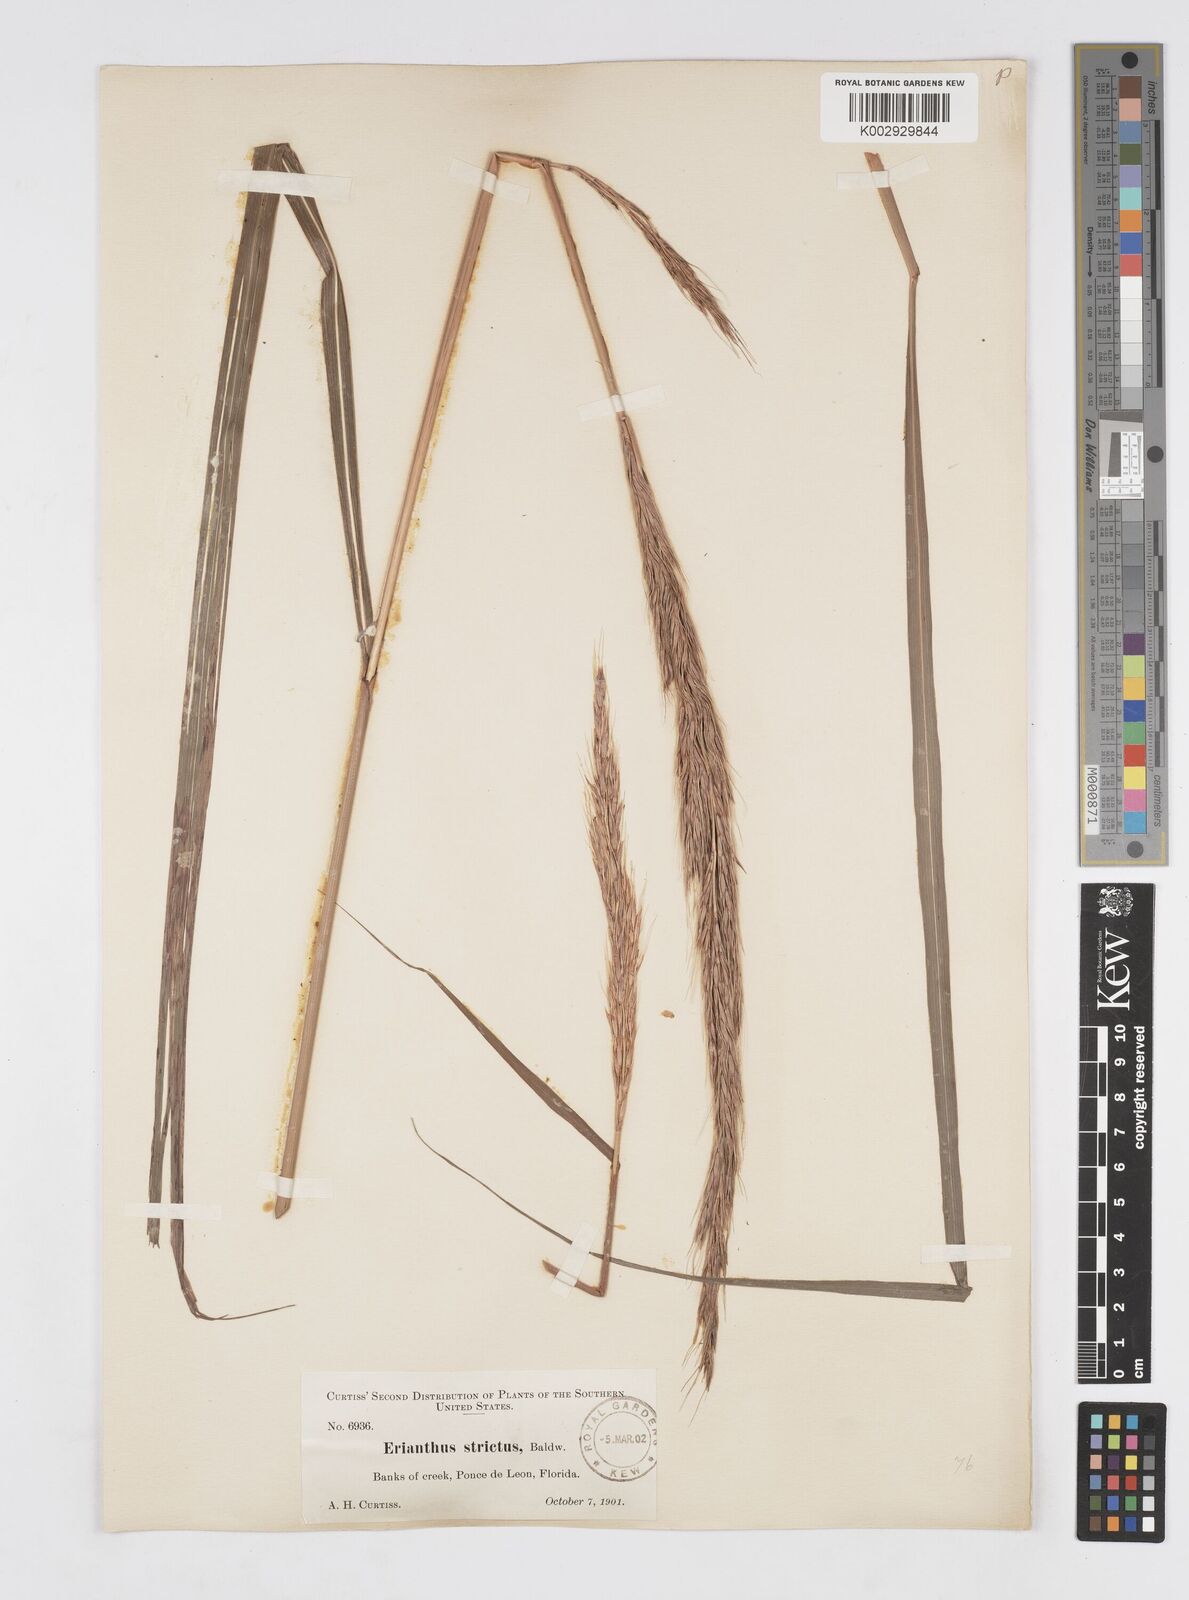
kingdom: Plantae
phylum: Tracheophyta
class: Liliopsida
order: Poales
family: Poaceae
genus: Erianthus
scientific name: Erianthus strictus
